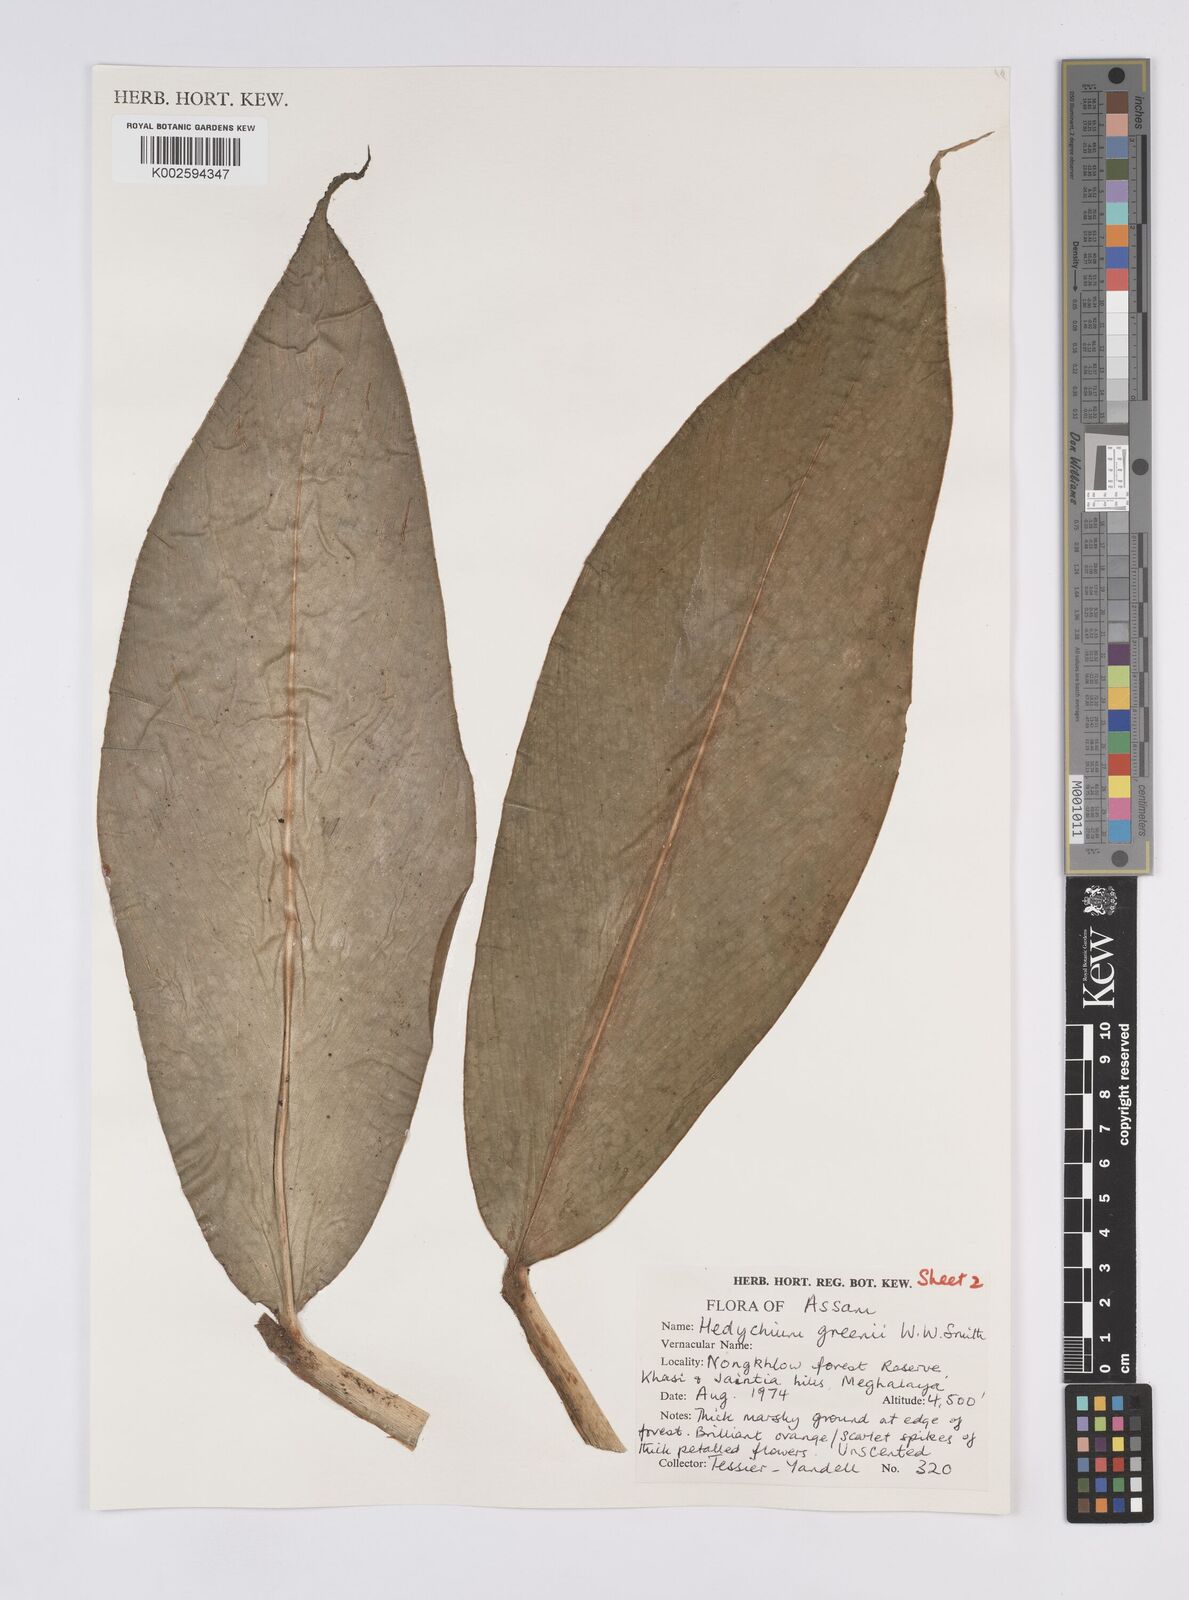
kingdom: Plantae
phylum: Tracheophyta
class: Liliopsida
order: Zingiberales
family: Zingiberaceae
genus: Hedychium
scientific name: Hedychium greenii
